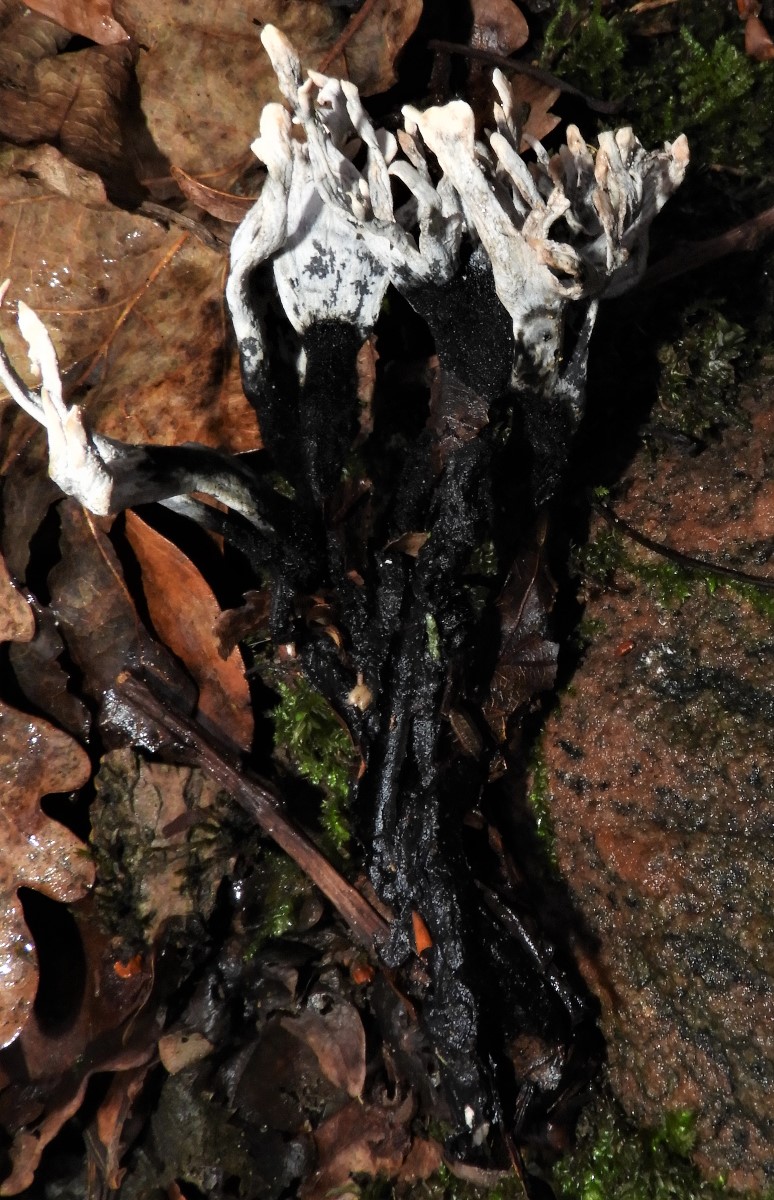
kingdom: Fungi
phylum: Ascomycota
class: Sordariomycetes
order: Xylariales
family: Xylariaceae
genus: Xylaria
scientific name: Xylaria hypoxylon
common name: grenet stødsvamp
